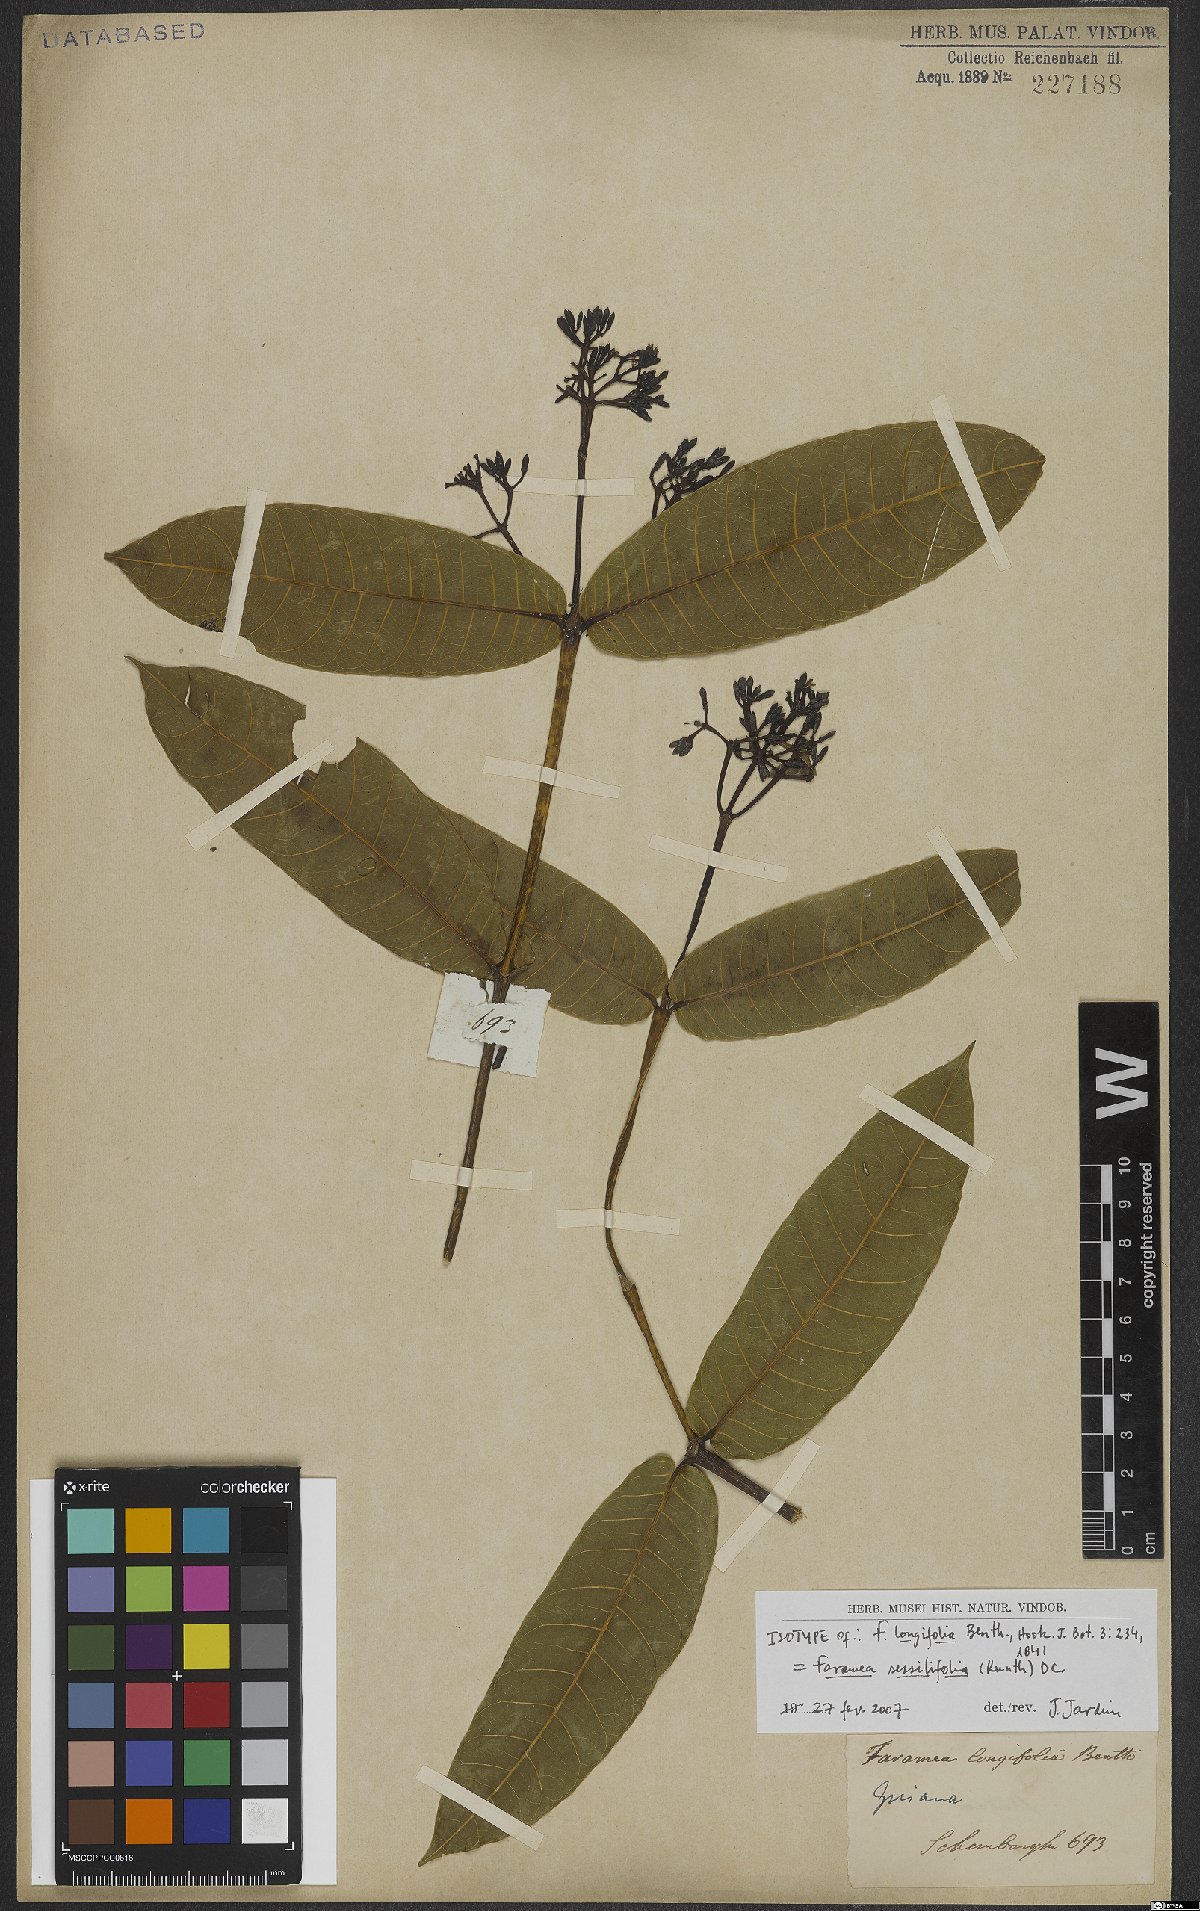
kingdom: Plantae
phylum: Tracheophyta
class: Magnoliopsida
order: Gentianales
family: Rubiaceae
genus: Faramea
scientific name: Faramea sessilifolia
